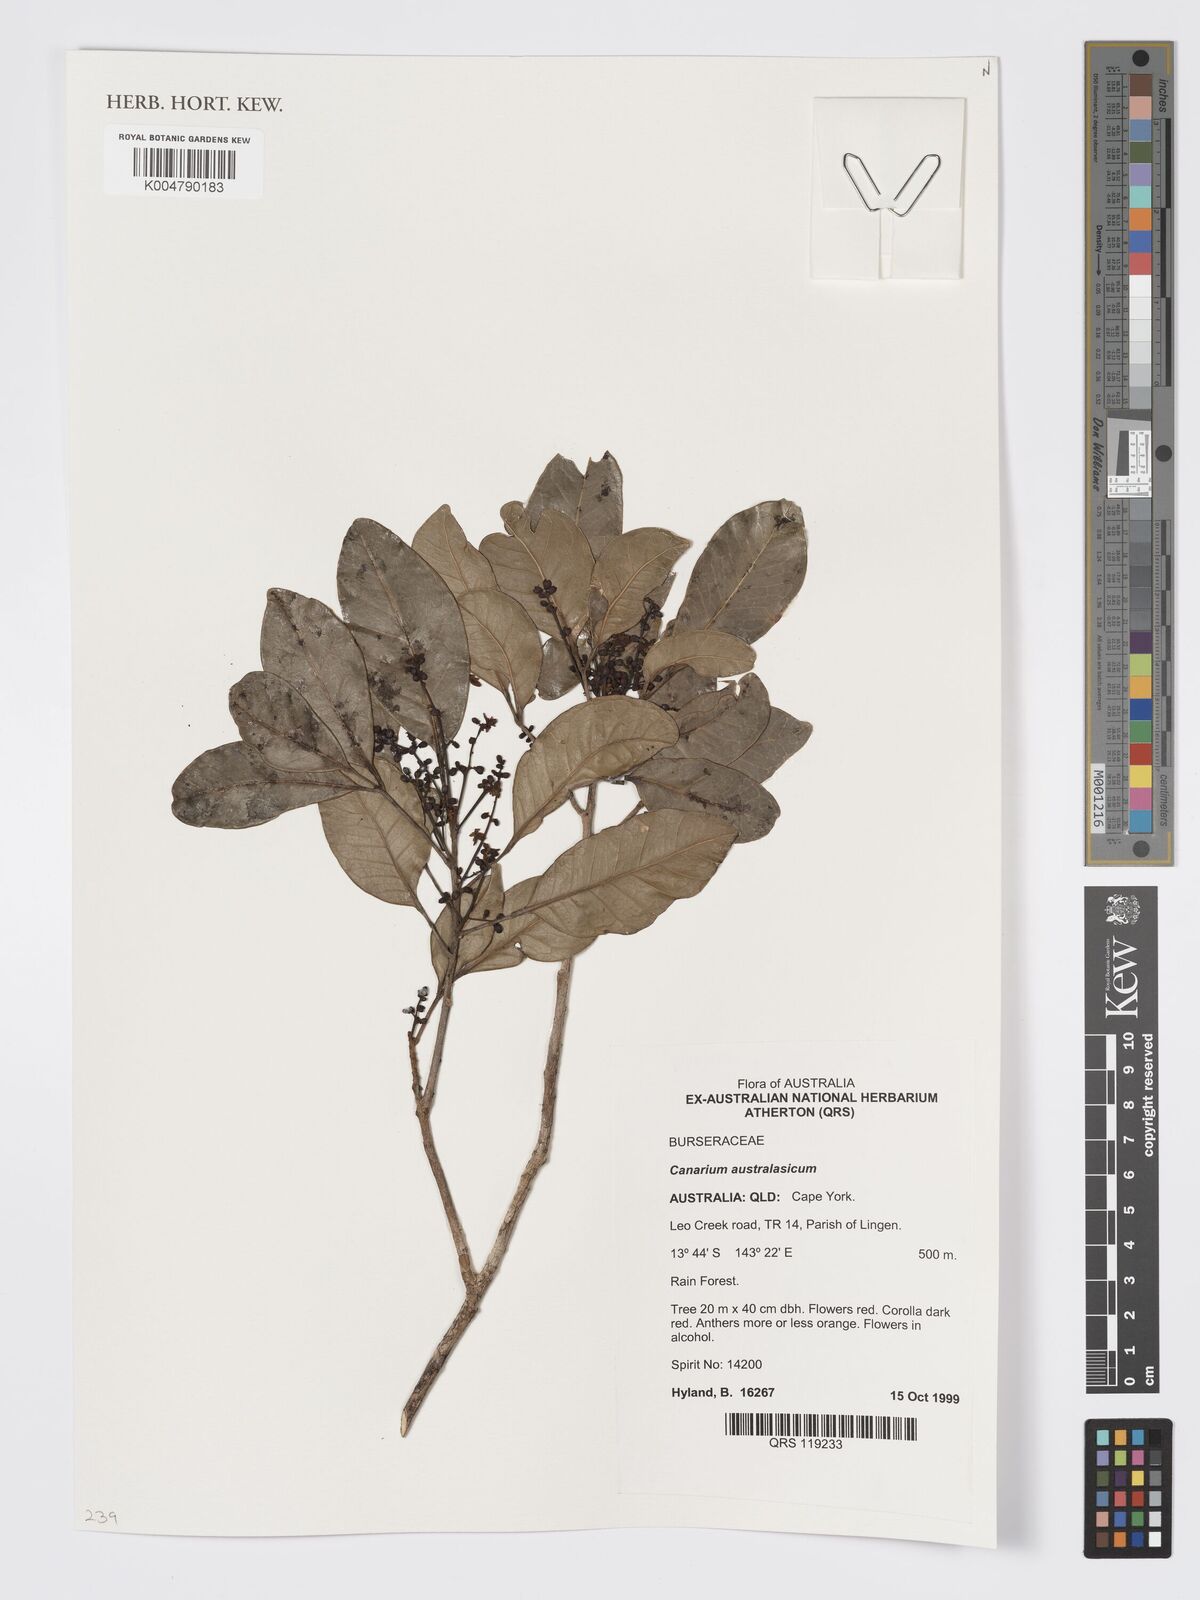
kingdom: Plantae
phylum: Tracheophyta
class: Magnoliopsida
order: Sapindales
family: Burseraceae
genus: Canarium
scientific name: Canarium australianum
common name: Island white-beech
